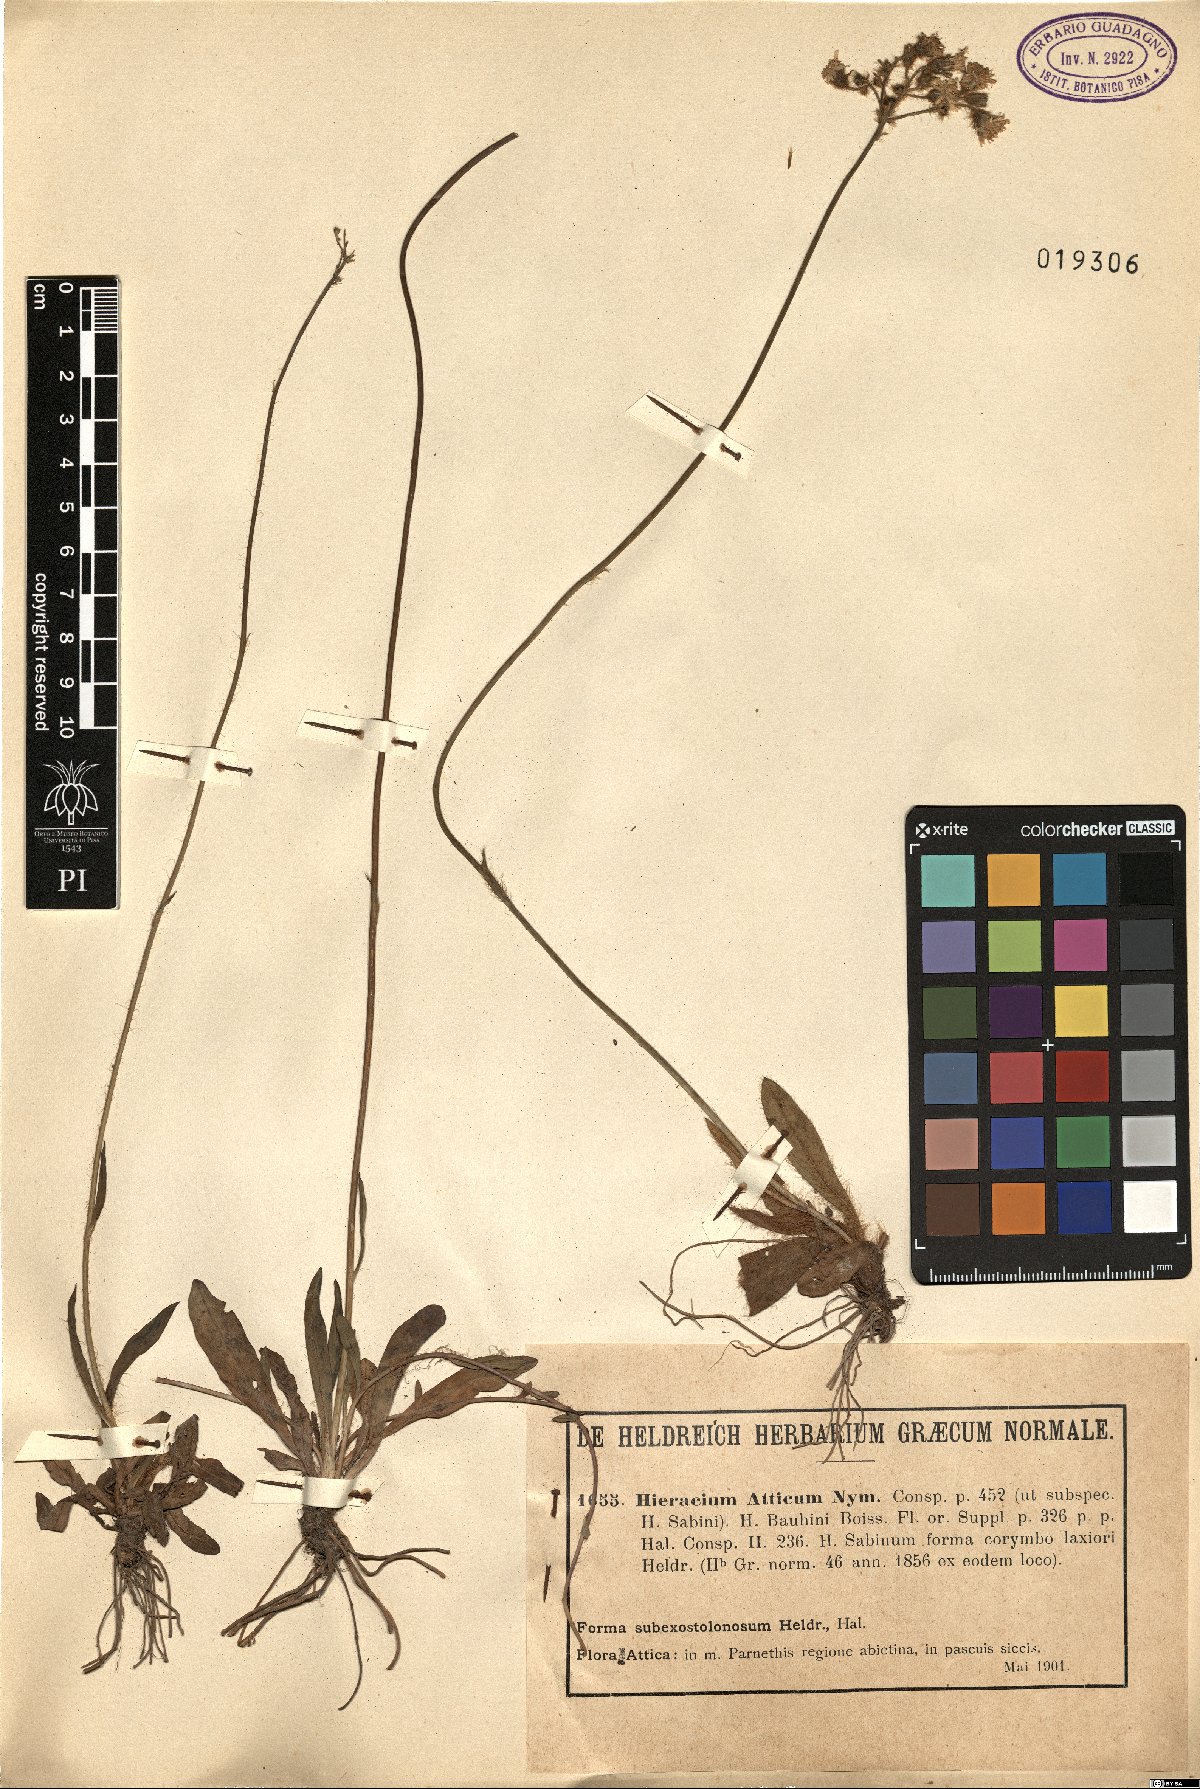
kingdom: Plantae
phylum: Tracheophyta
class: Magnoliopsida
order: Asterales
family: Asteraceae
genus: Hieracium
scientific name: Hieracium atticum
